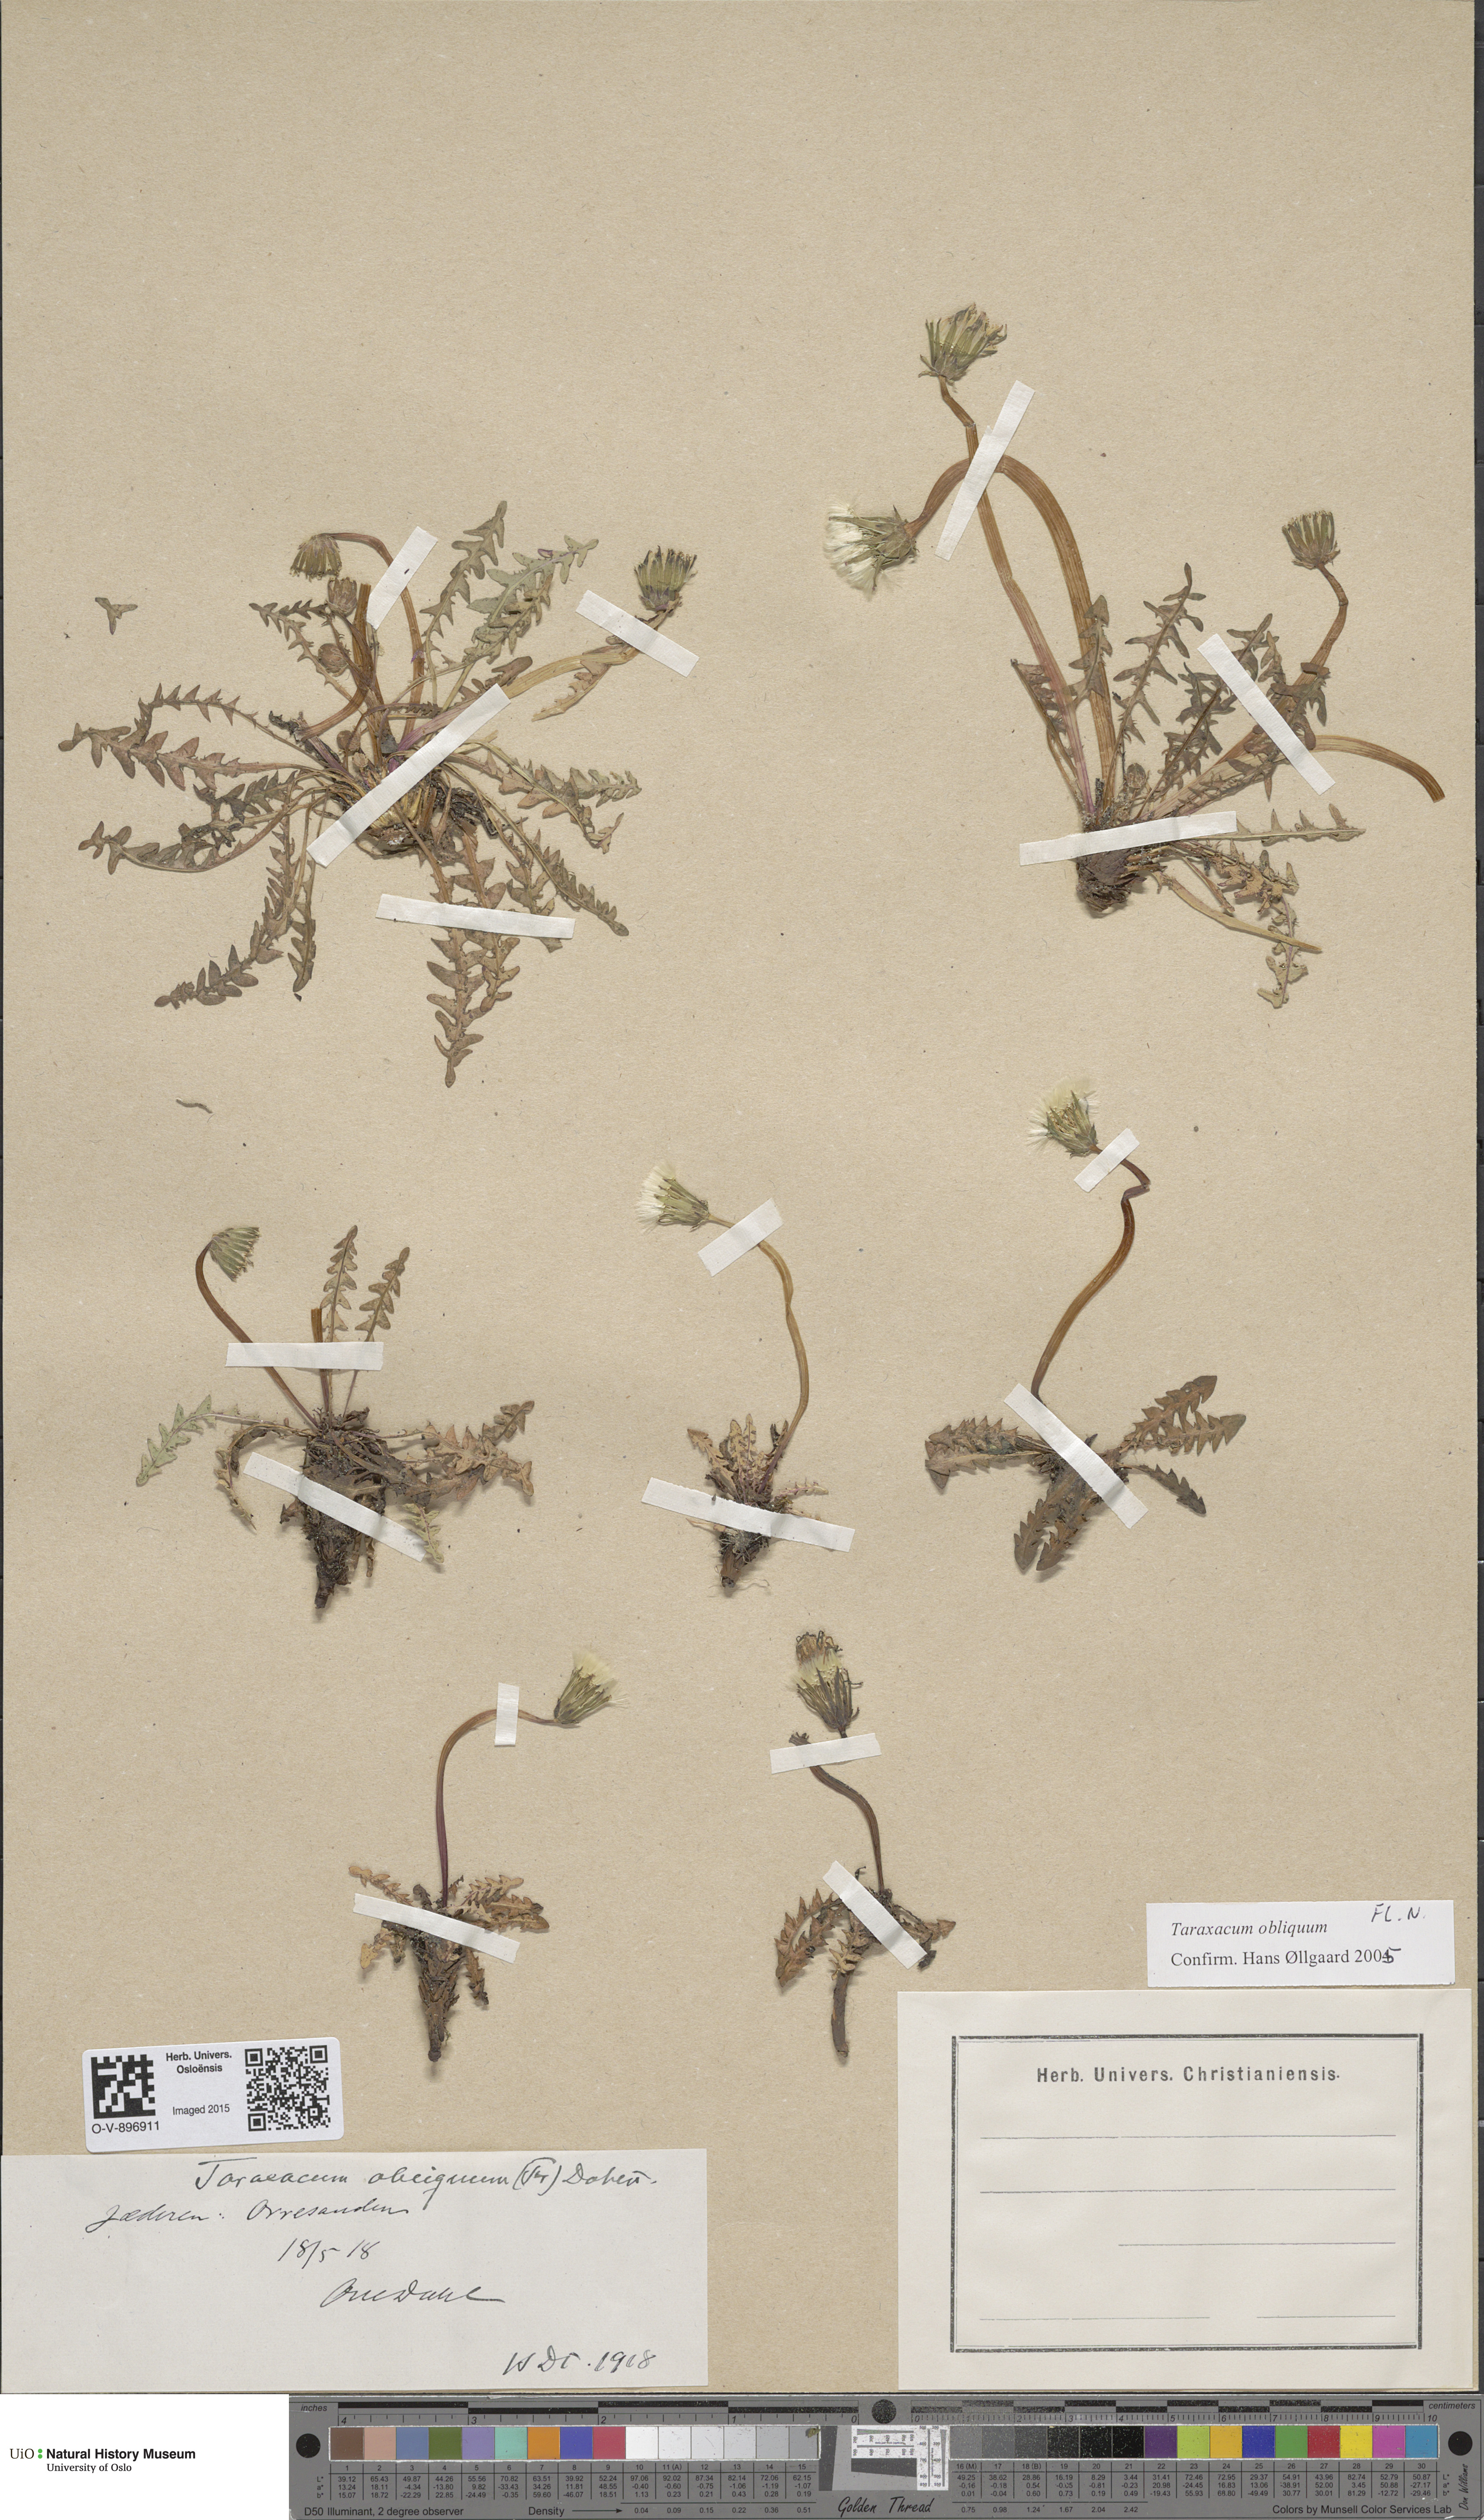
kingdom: Plantae
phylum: Tracheophyta
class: Magnoliopsida
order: Asterales
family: Asteraceae
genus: Taraxacum
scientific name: Taraxacum obliquum
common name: Many-lobed dandelion
